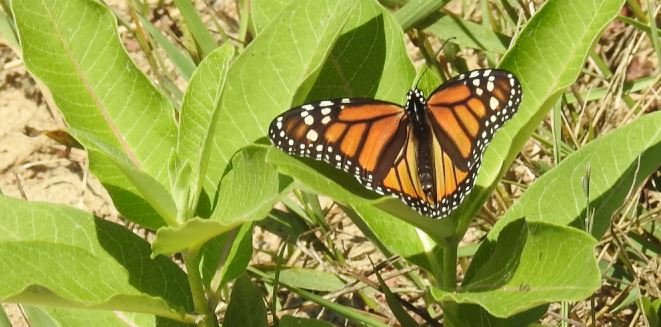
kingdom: Animalia
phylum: Arthropoda
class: Insecta
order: Lepidoptera
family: Nymphalidae
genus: Danaus
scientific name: Danaus plexippus
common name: Monarch
